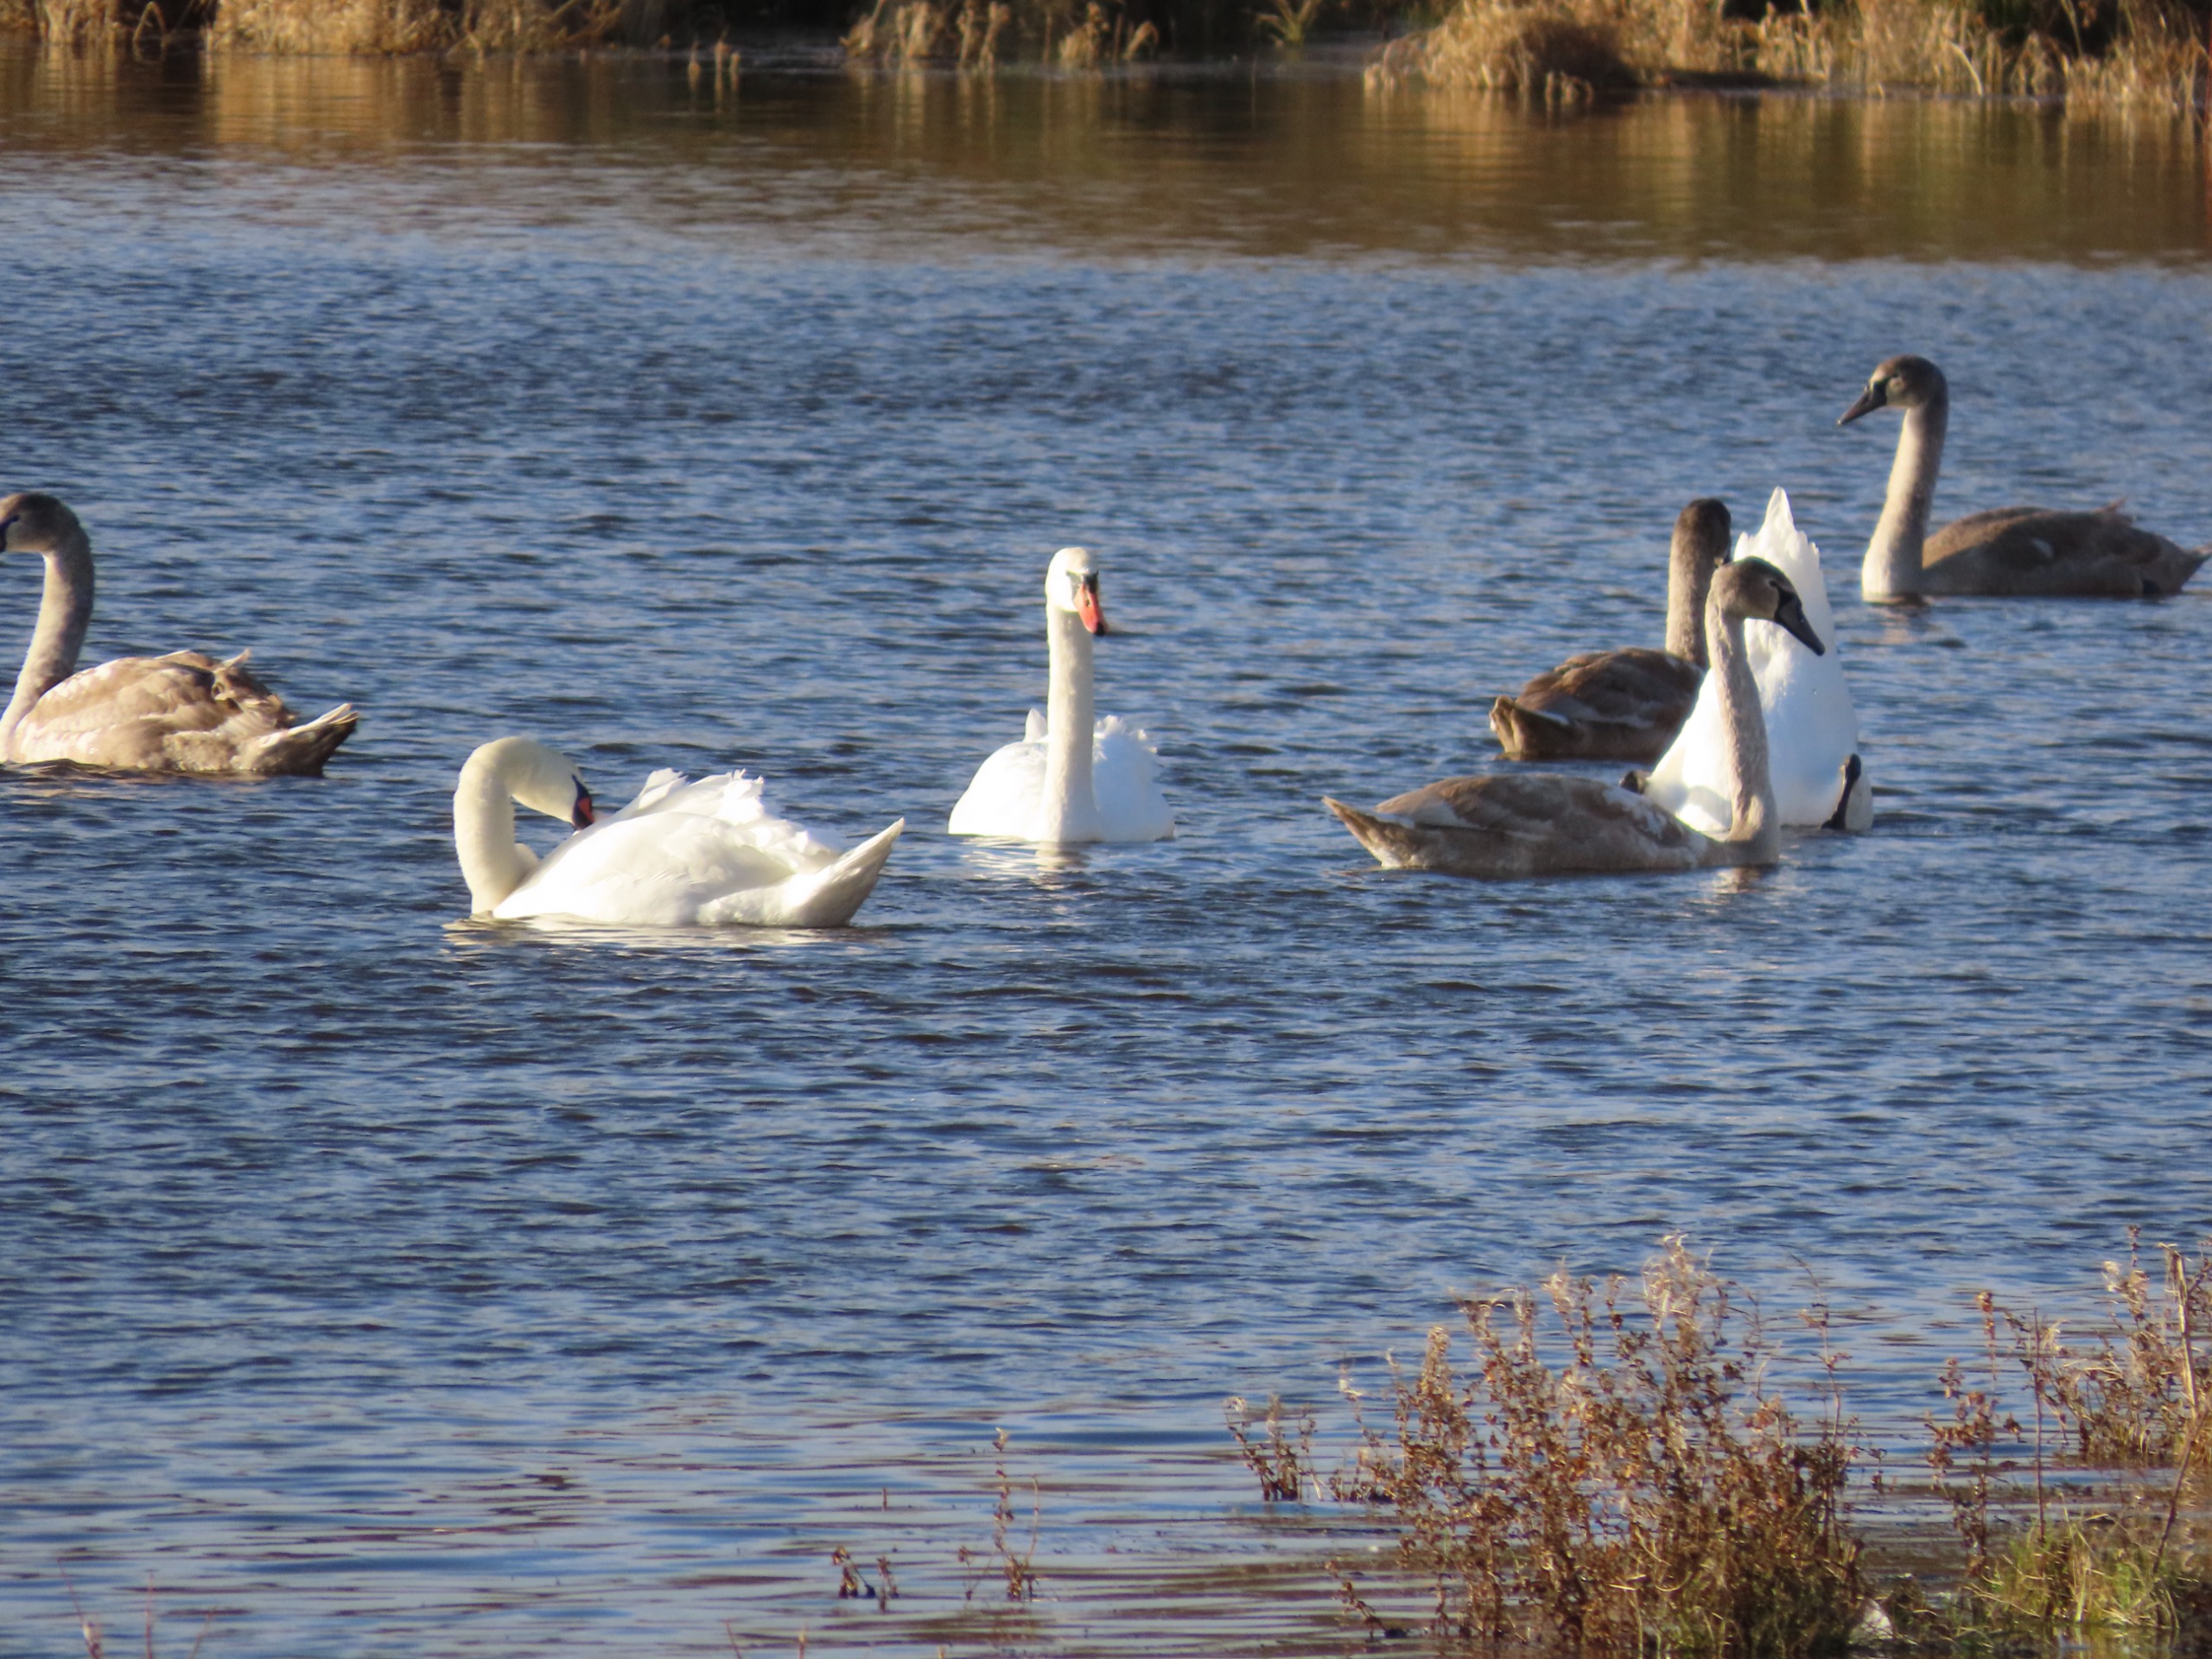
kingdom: Animalia
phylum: Chordata
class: Aves
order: Anseriformes
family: Anatidae
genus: Cygnus
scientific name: Cygnus olor
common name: Knopsvane
